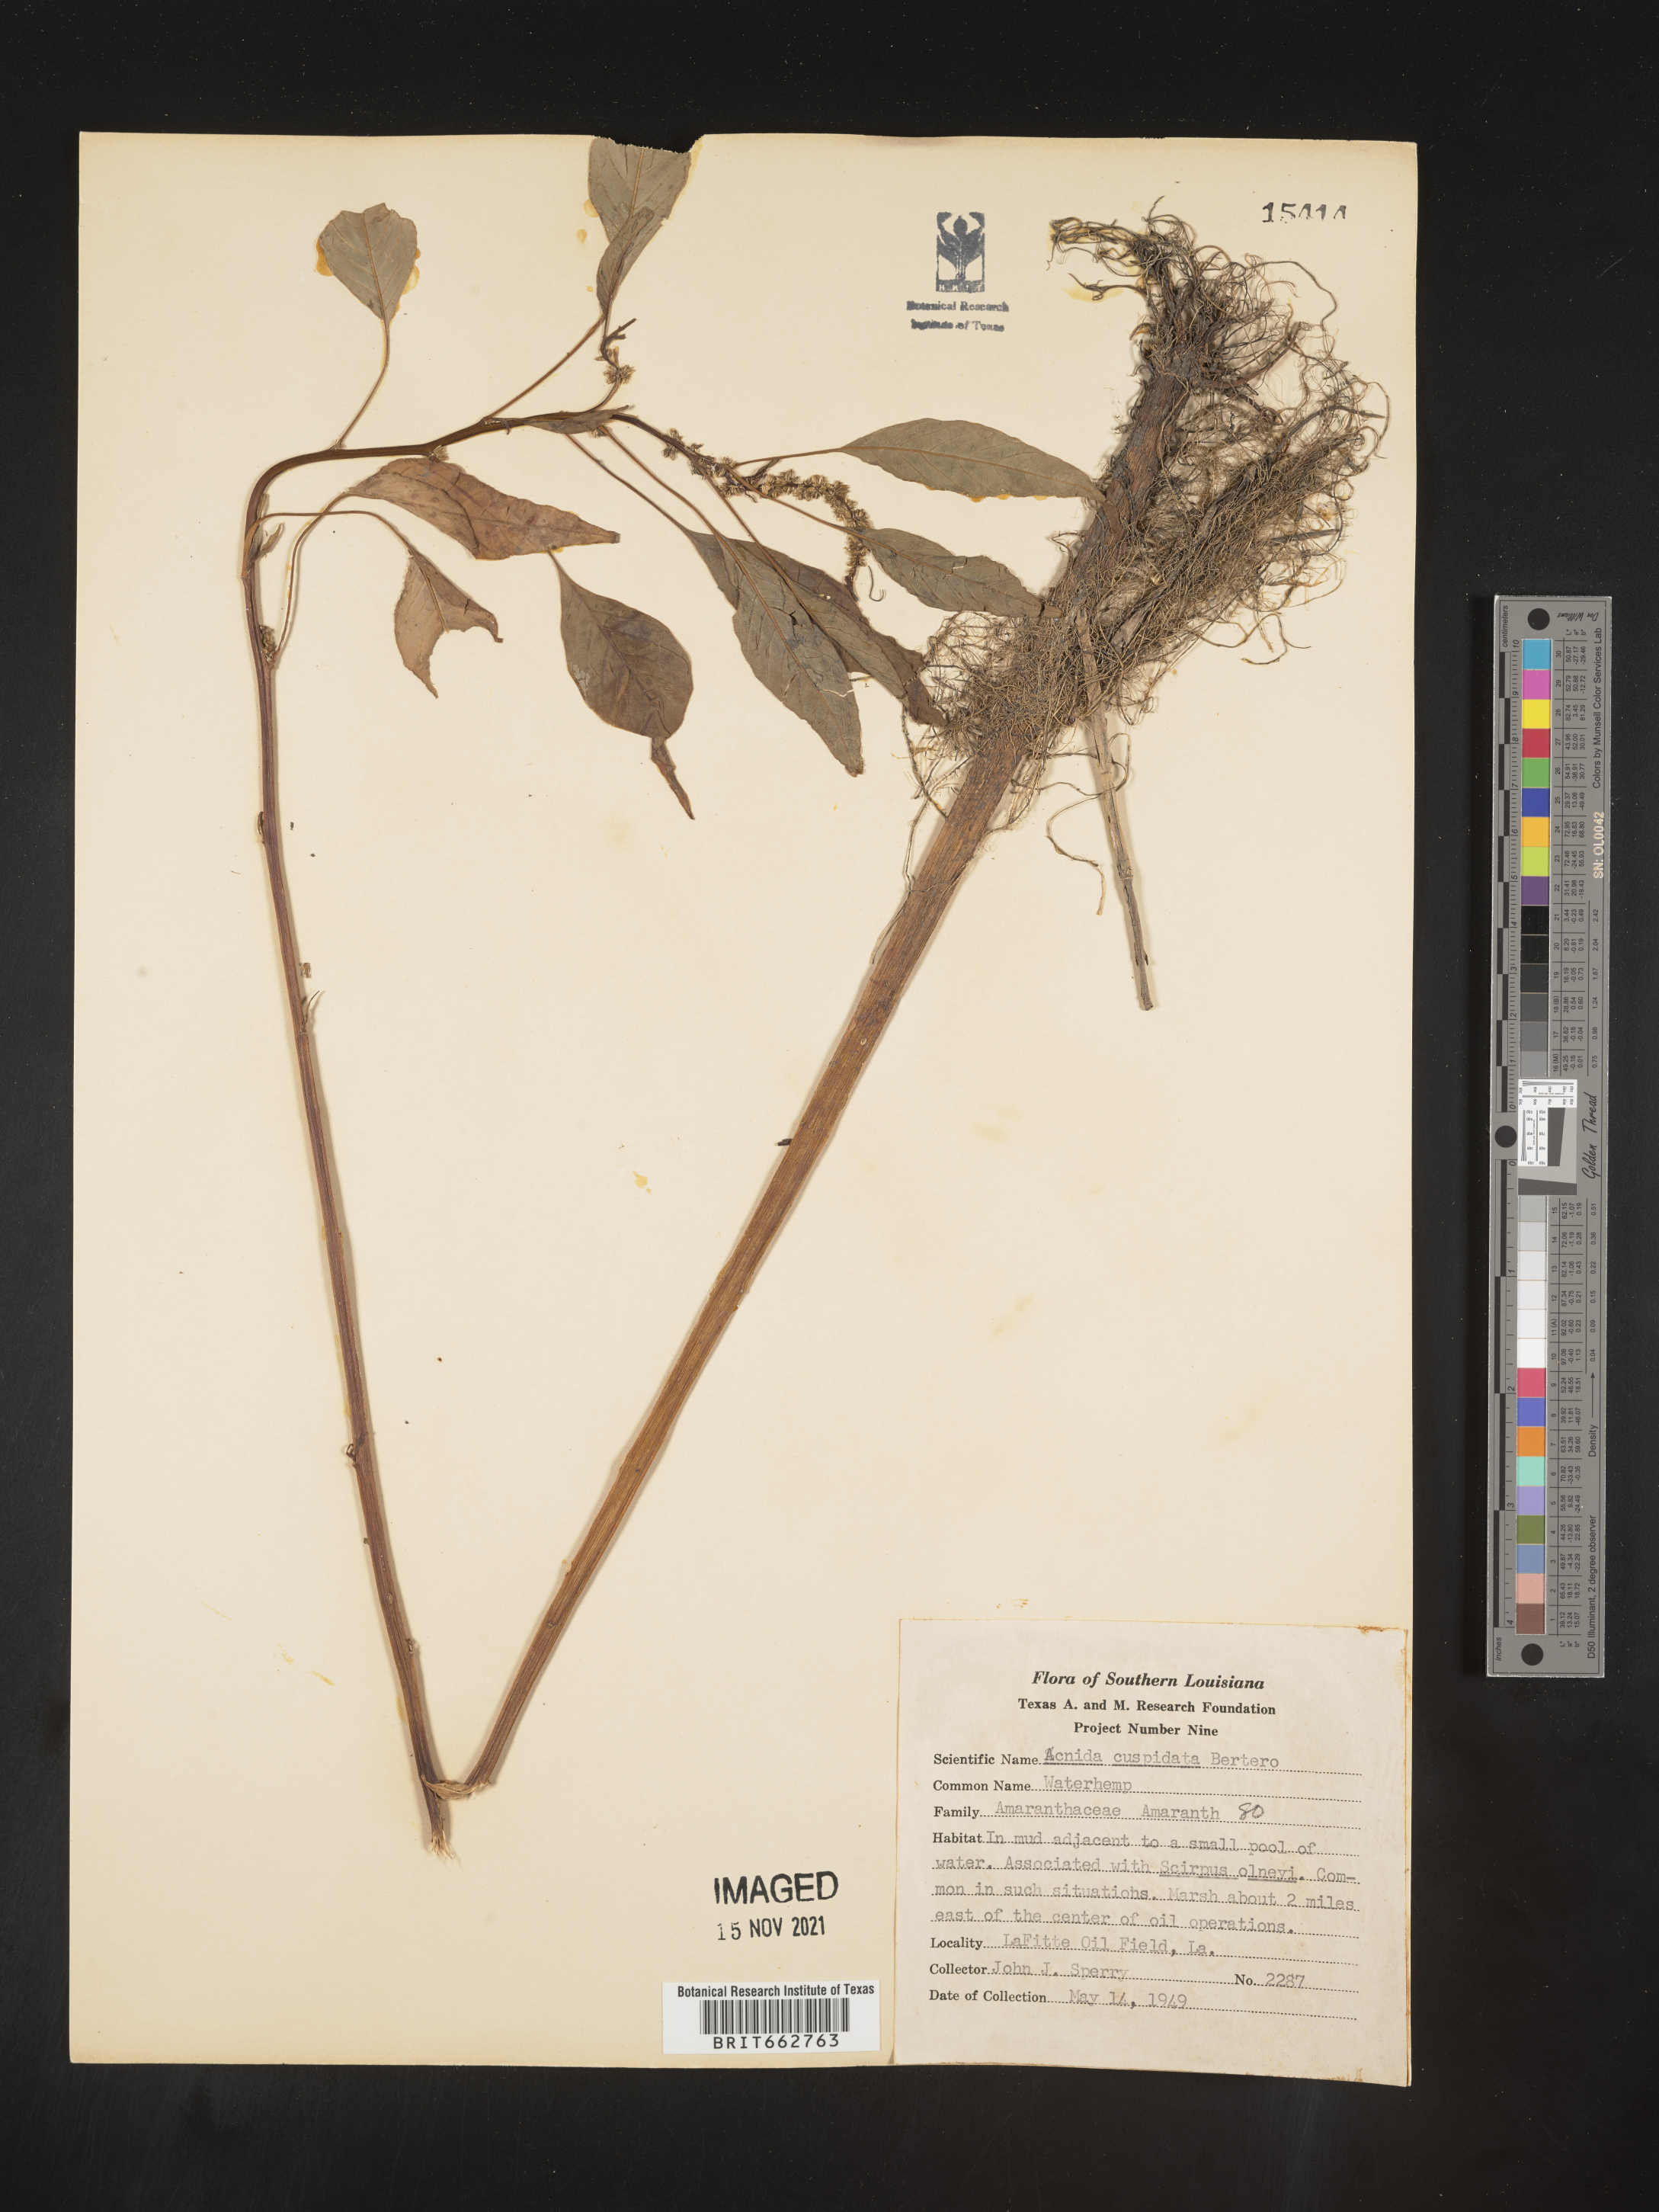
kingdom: Plantae
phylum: Tracheophyta
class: Magnoliopsida
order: Caryophyllales
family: Amaranthaceae
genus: Amaranthus
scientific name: Amaranthus
